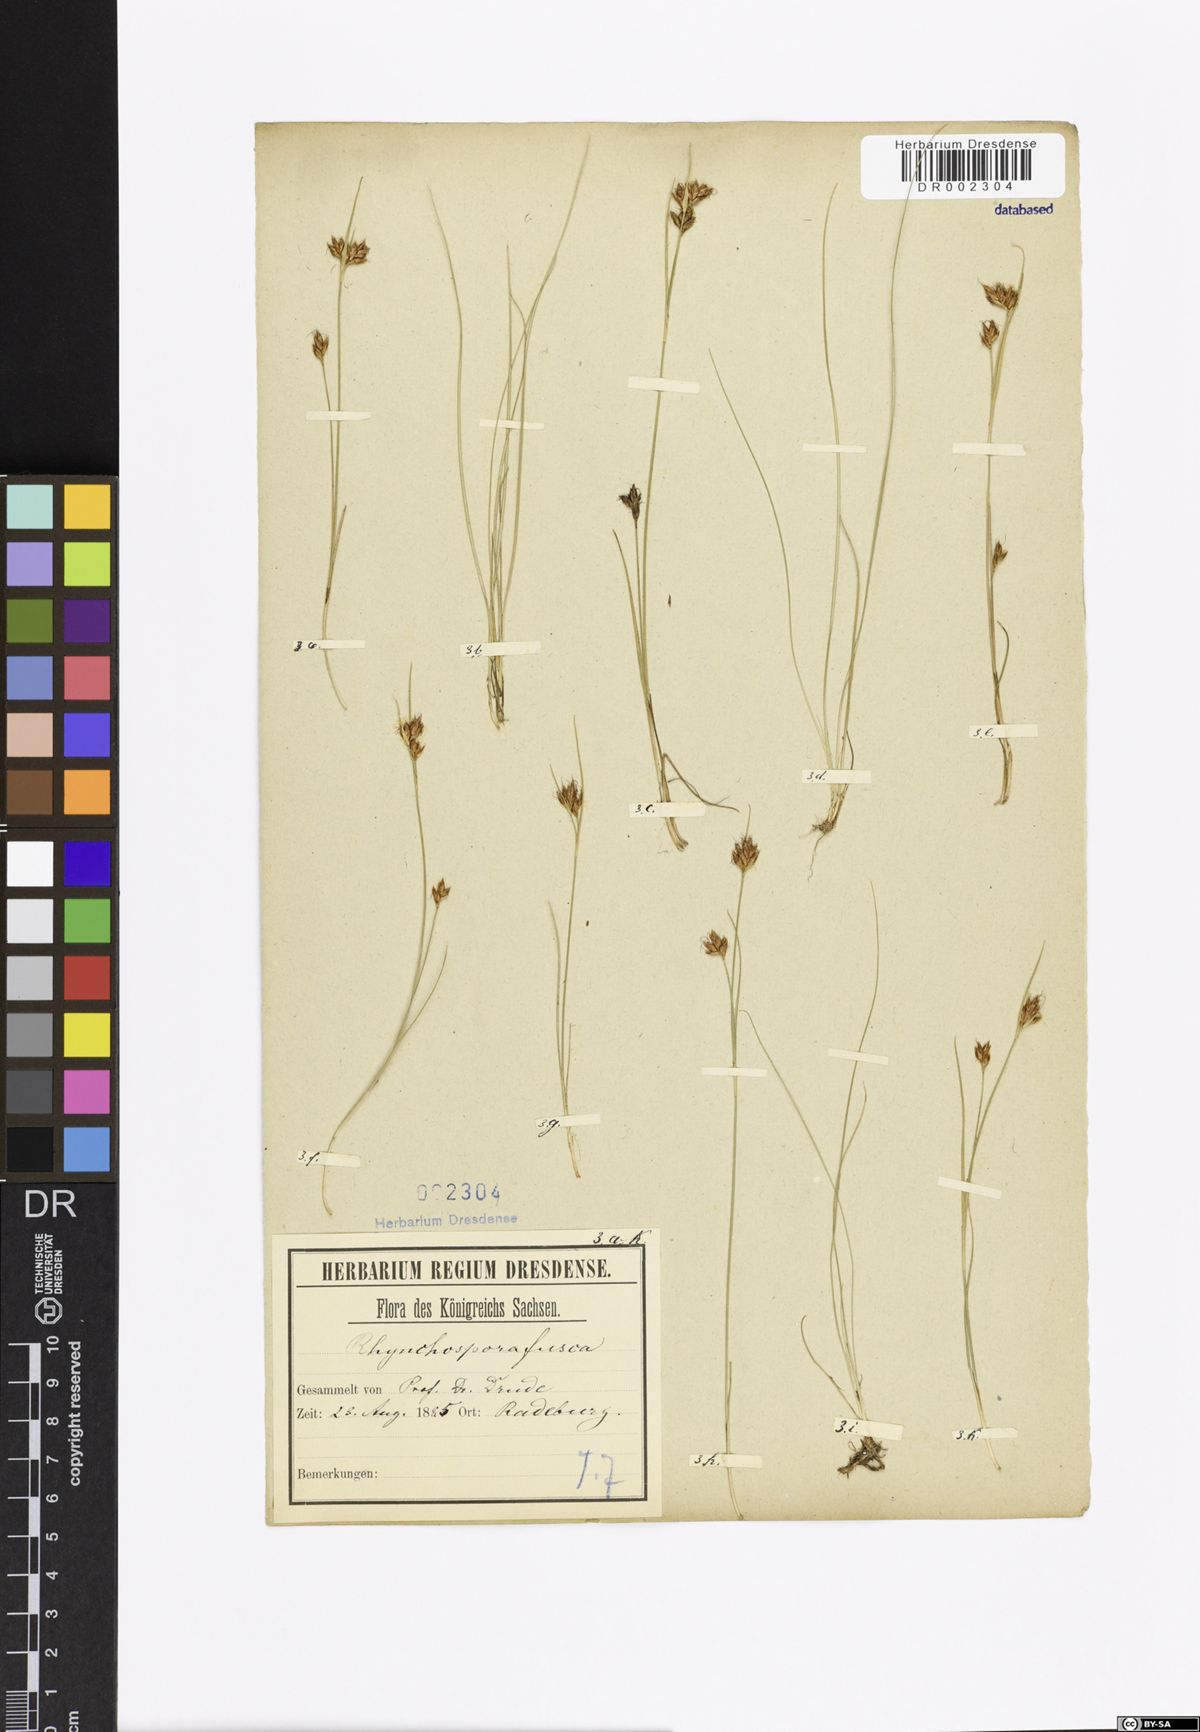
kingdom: Plantae
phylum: Tracheophyta
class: Liliopsida
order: Poales
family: Cyperaceae
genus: Rhynchospora
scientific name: Rhynchospora fusca
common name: Brown beak-sedge
